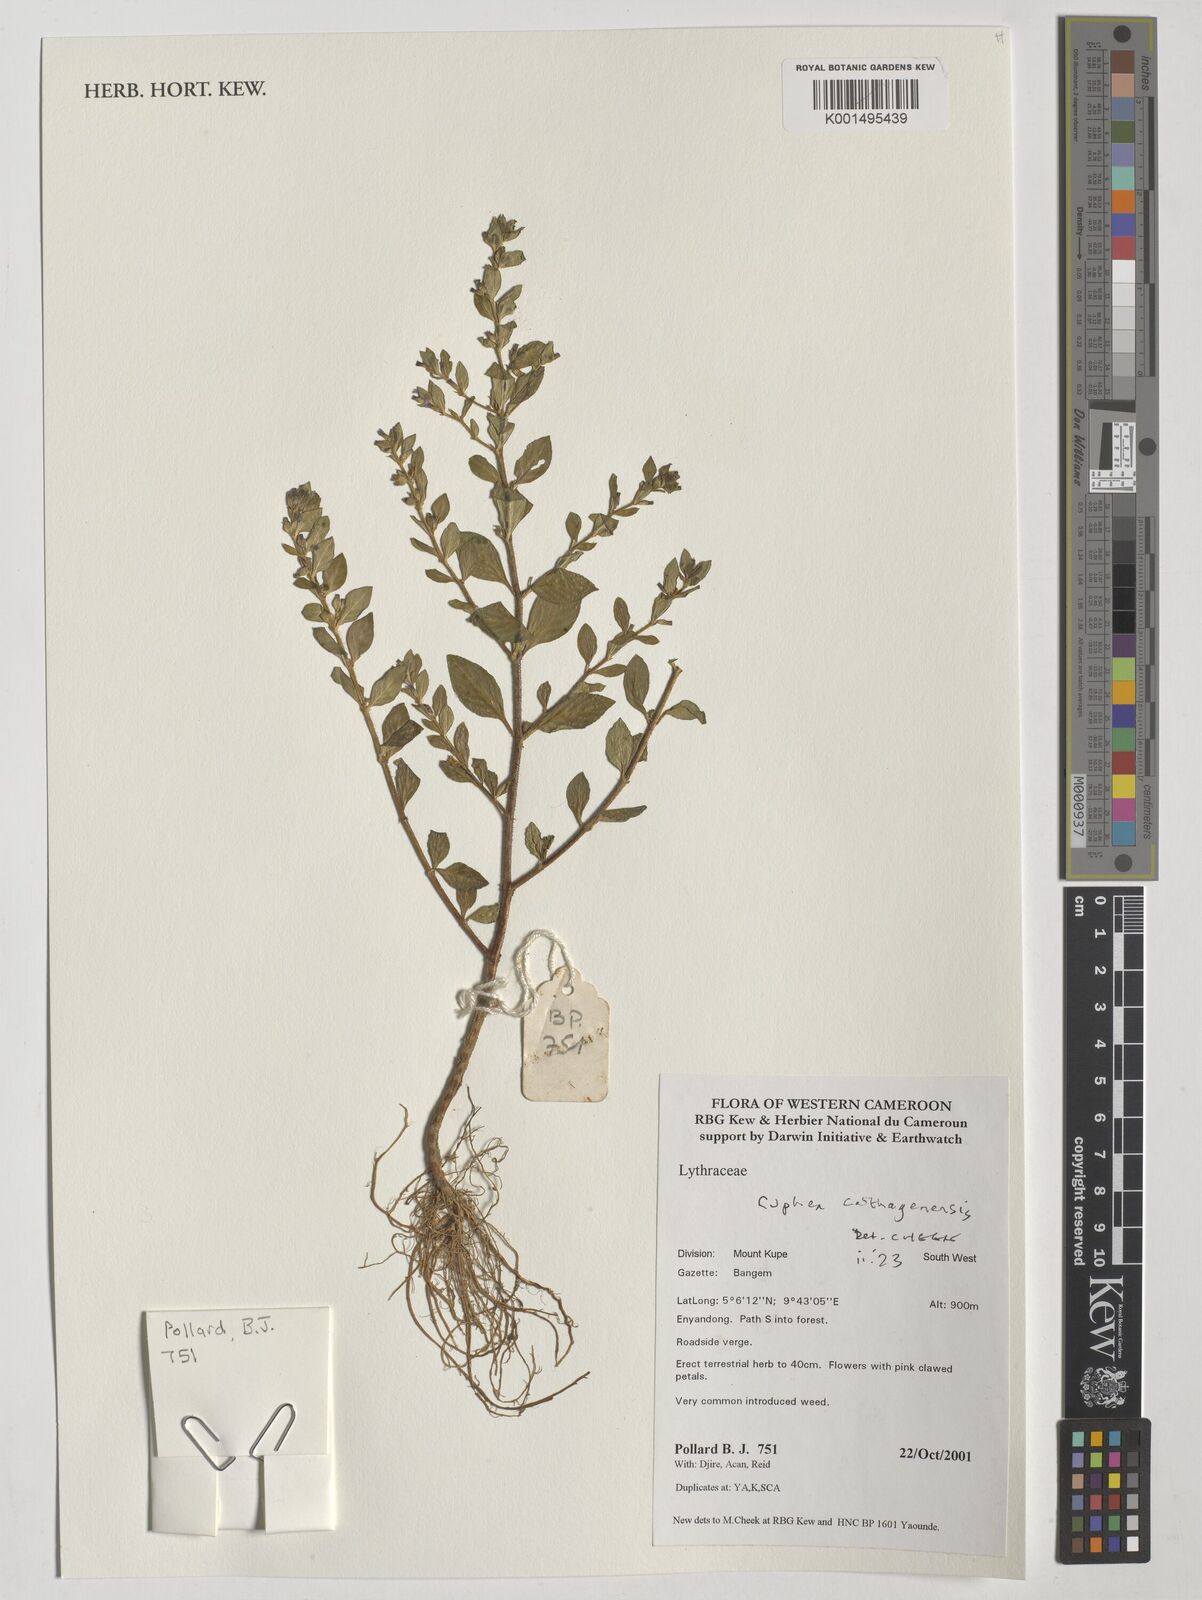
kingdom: Plantae
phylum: Tracheophyta
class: Magnoliopsida
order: Myrtales
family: Lythraceae
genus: Cuphea
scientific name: Cuphea carthagenensis
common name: Colombian waxweed
